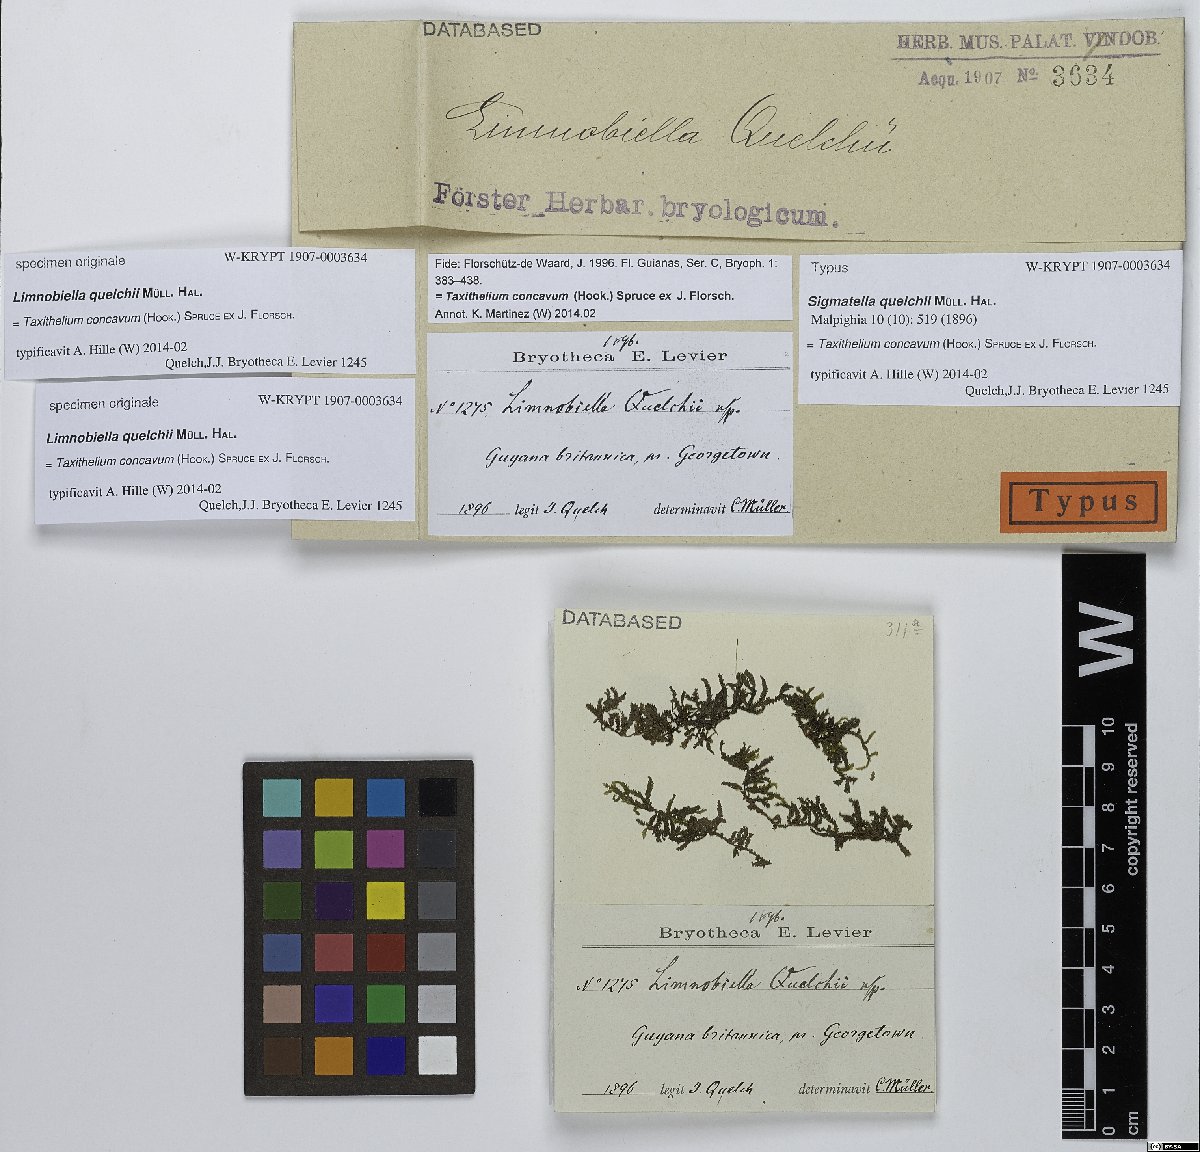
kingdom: Plantae
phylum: Bryophyta
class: Bryopsida
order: Hypnales
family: Pylaisiadelphaceae
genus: Taxithelium
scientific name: Taxithelium concavum
